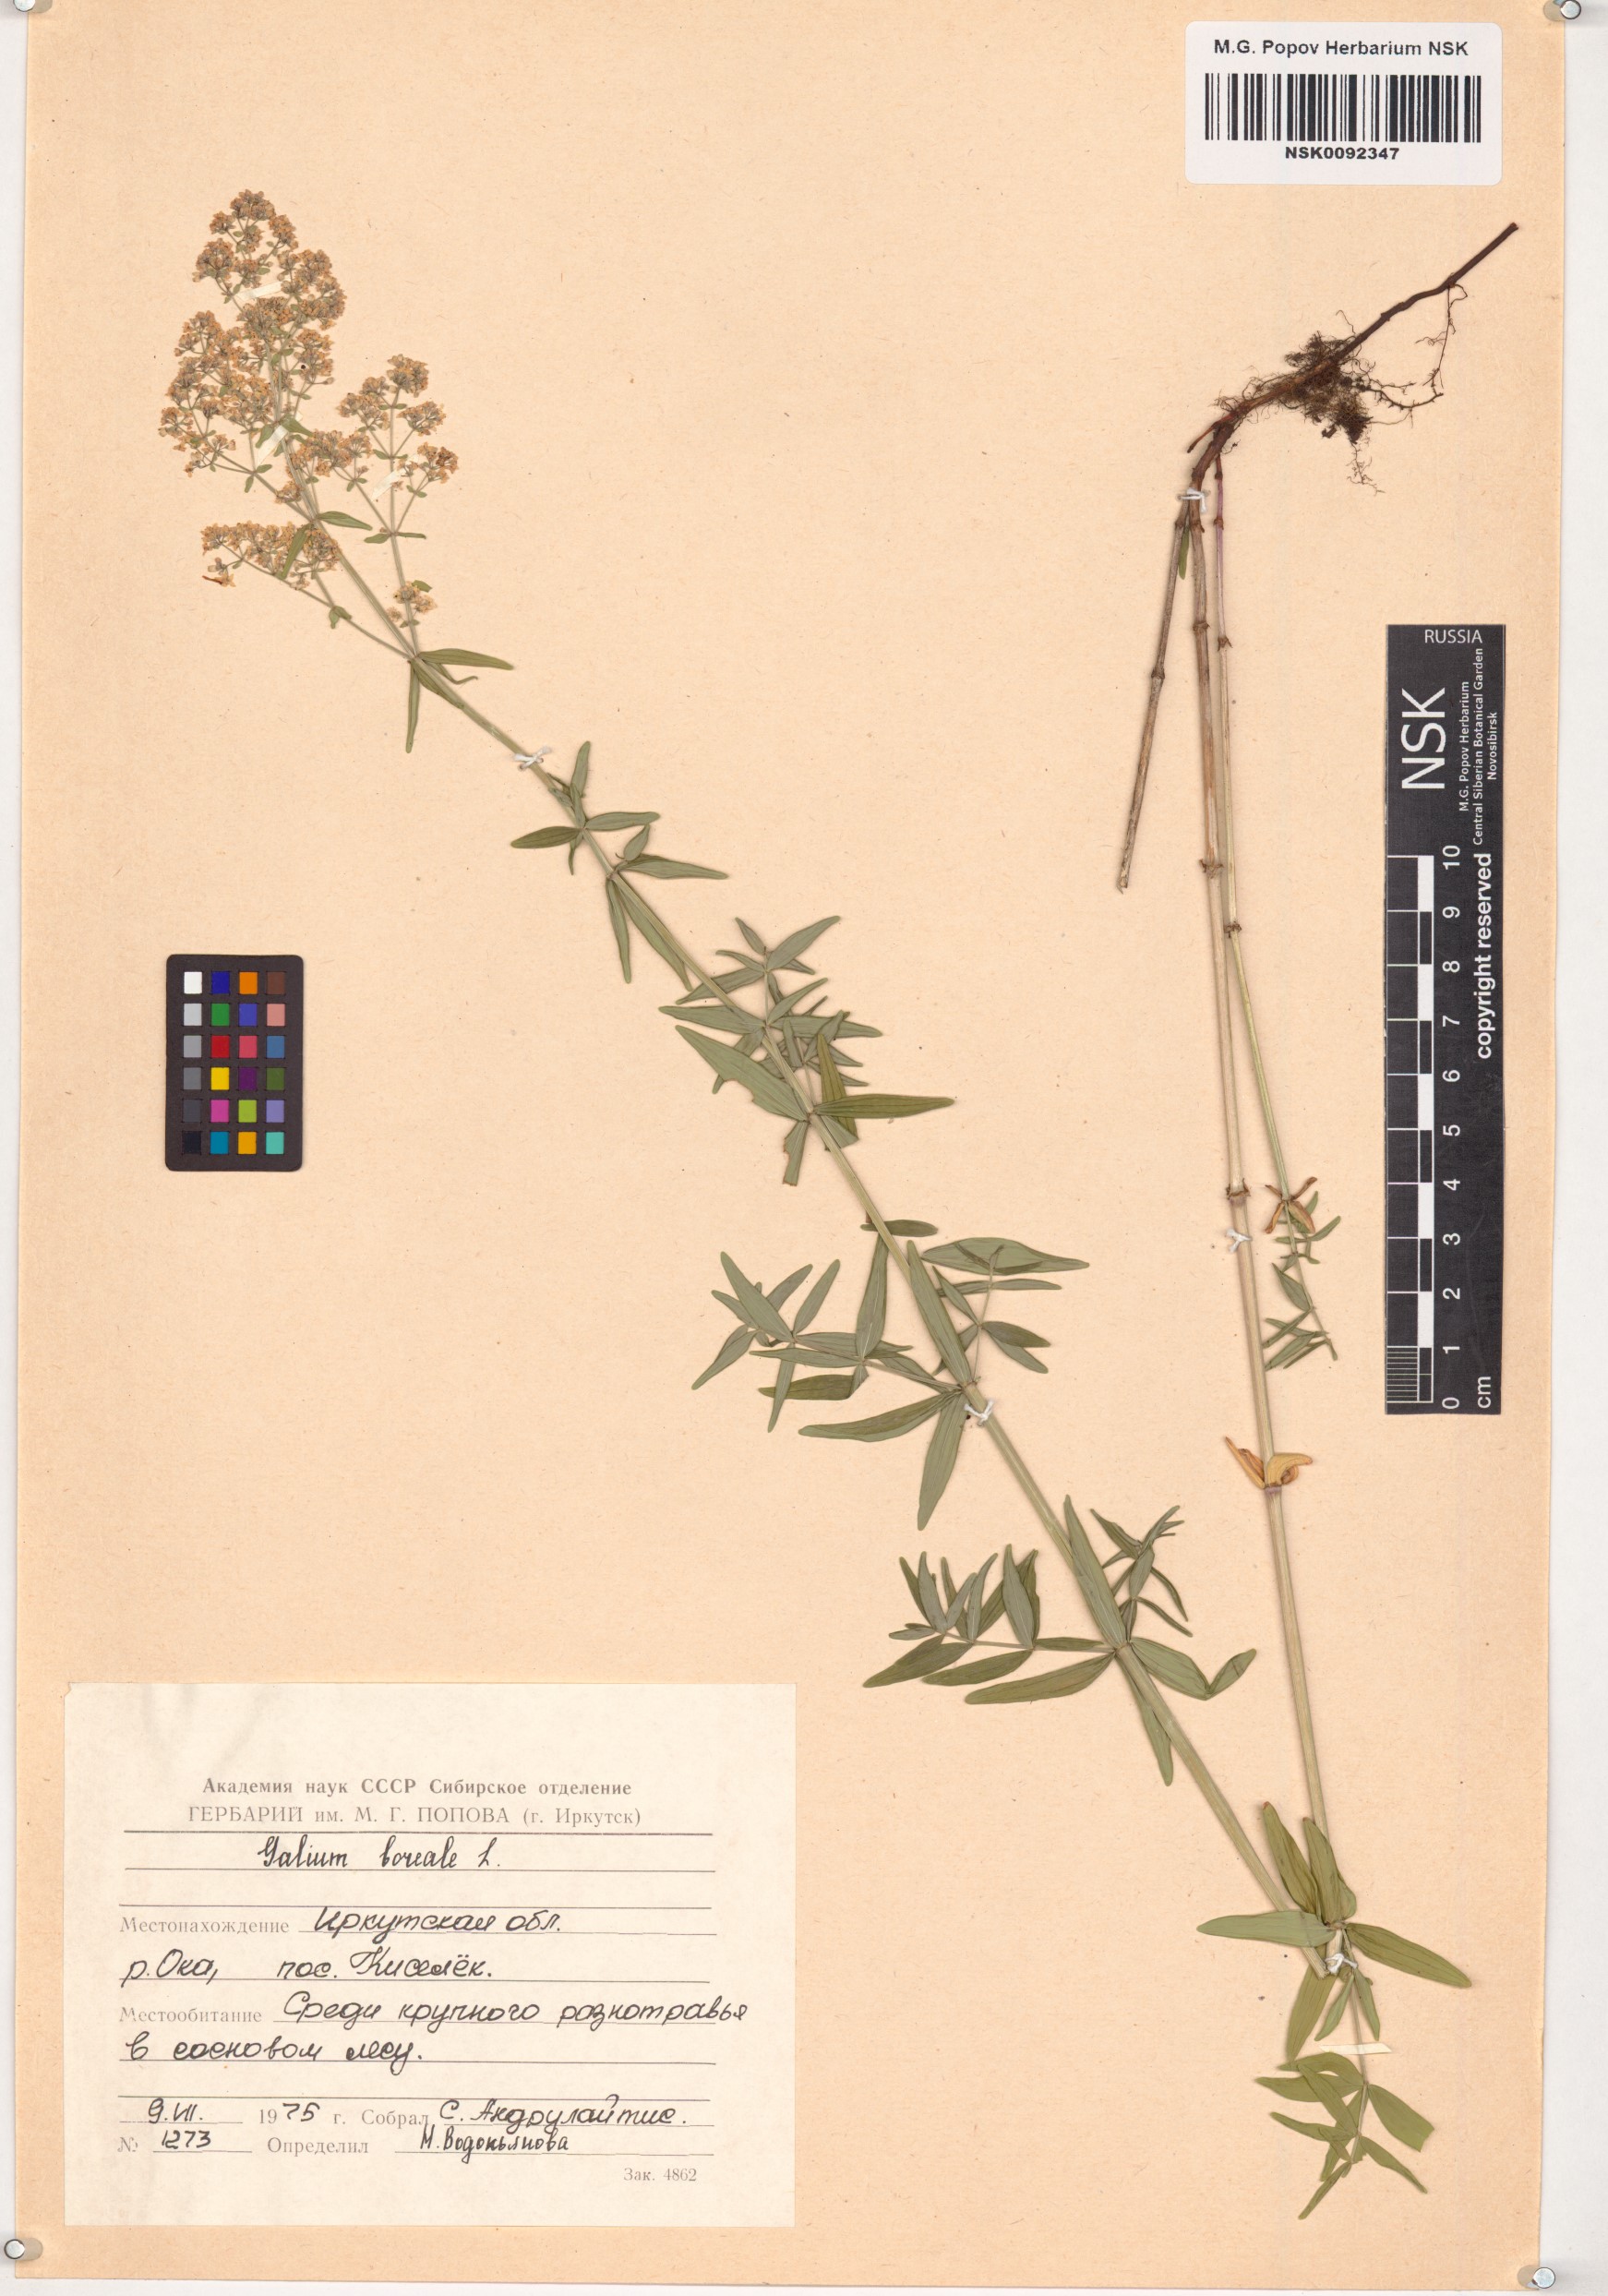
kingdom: Plantae
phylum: Tracheophyta
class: Magnoliopsida
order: Gentianales
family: Rubiaceae
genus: Galium
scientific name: Galium boreale
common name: Northern bedstraw
